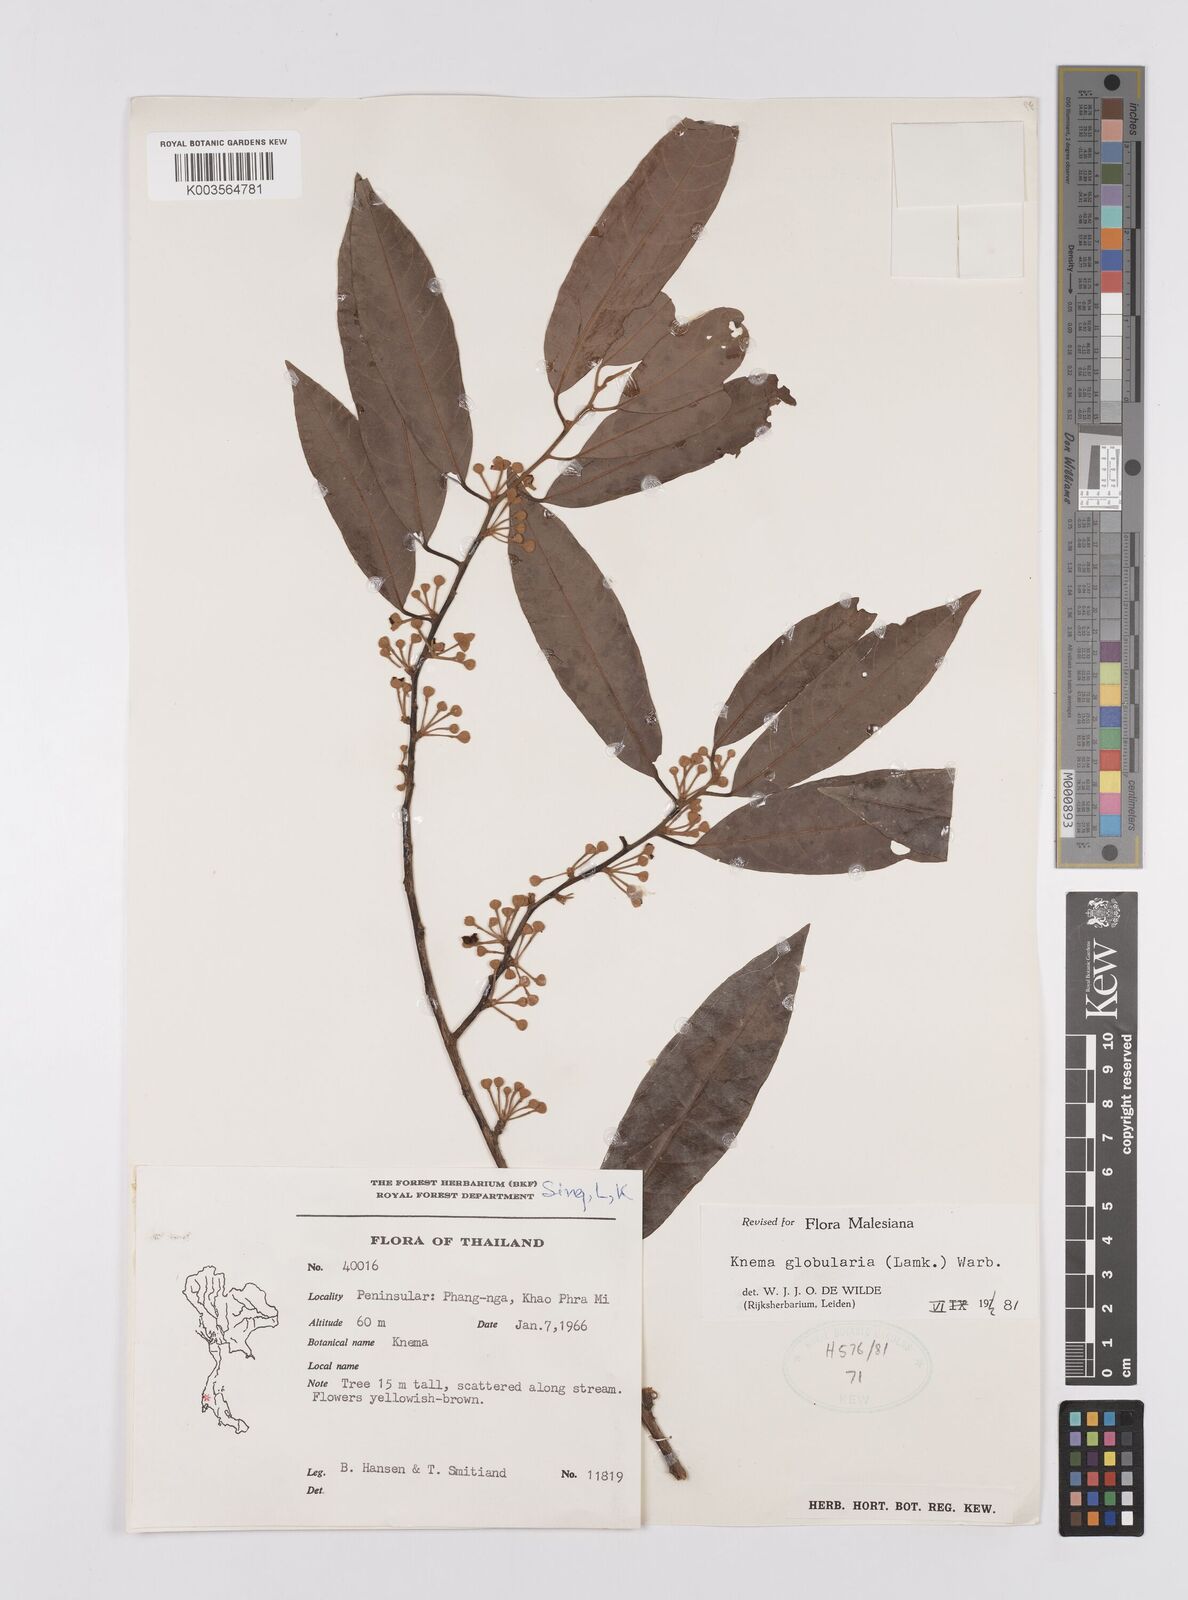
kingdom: Plantae
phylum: Tracheophyta
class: Magnoliopsida
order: Magnoliales
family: Myristicaceae
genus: Knema
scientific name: Knema globularia
